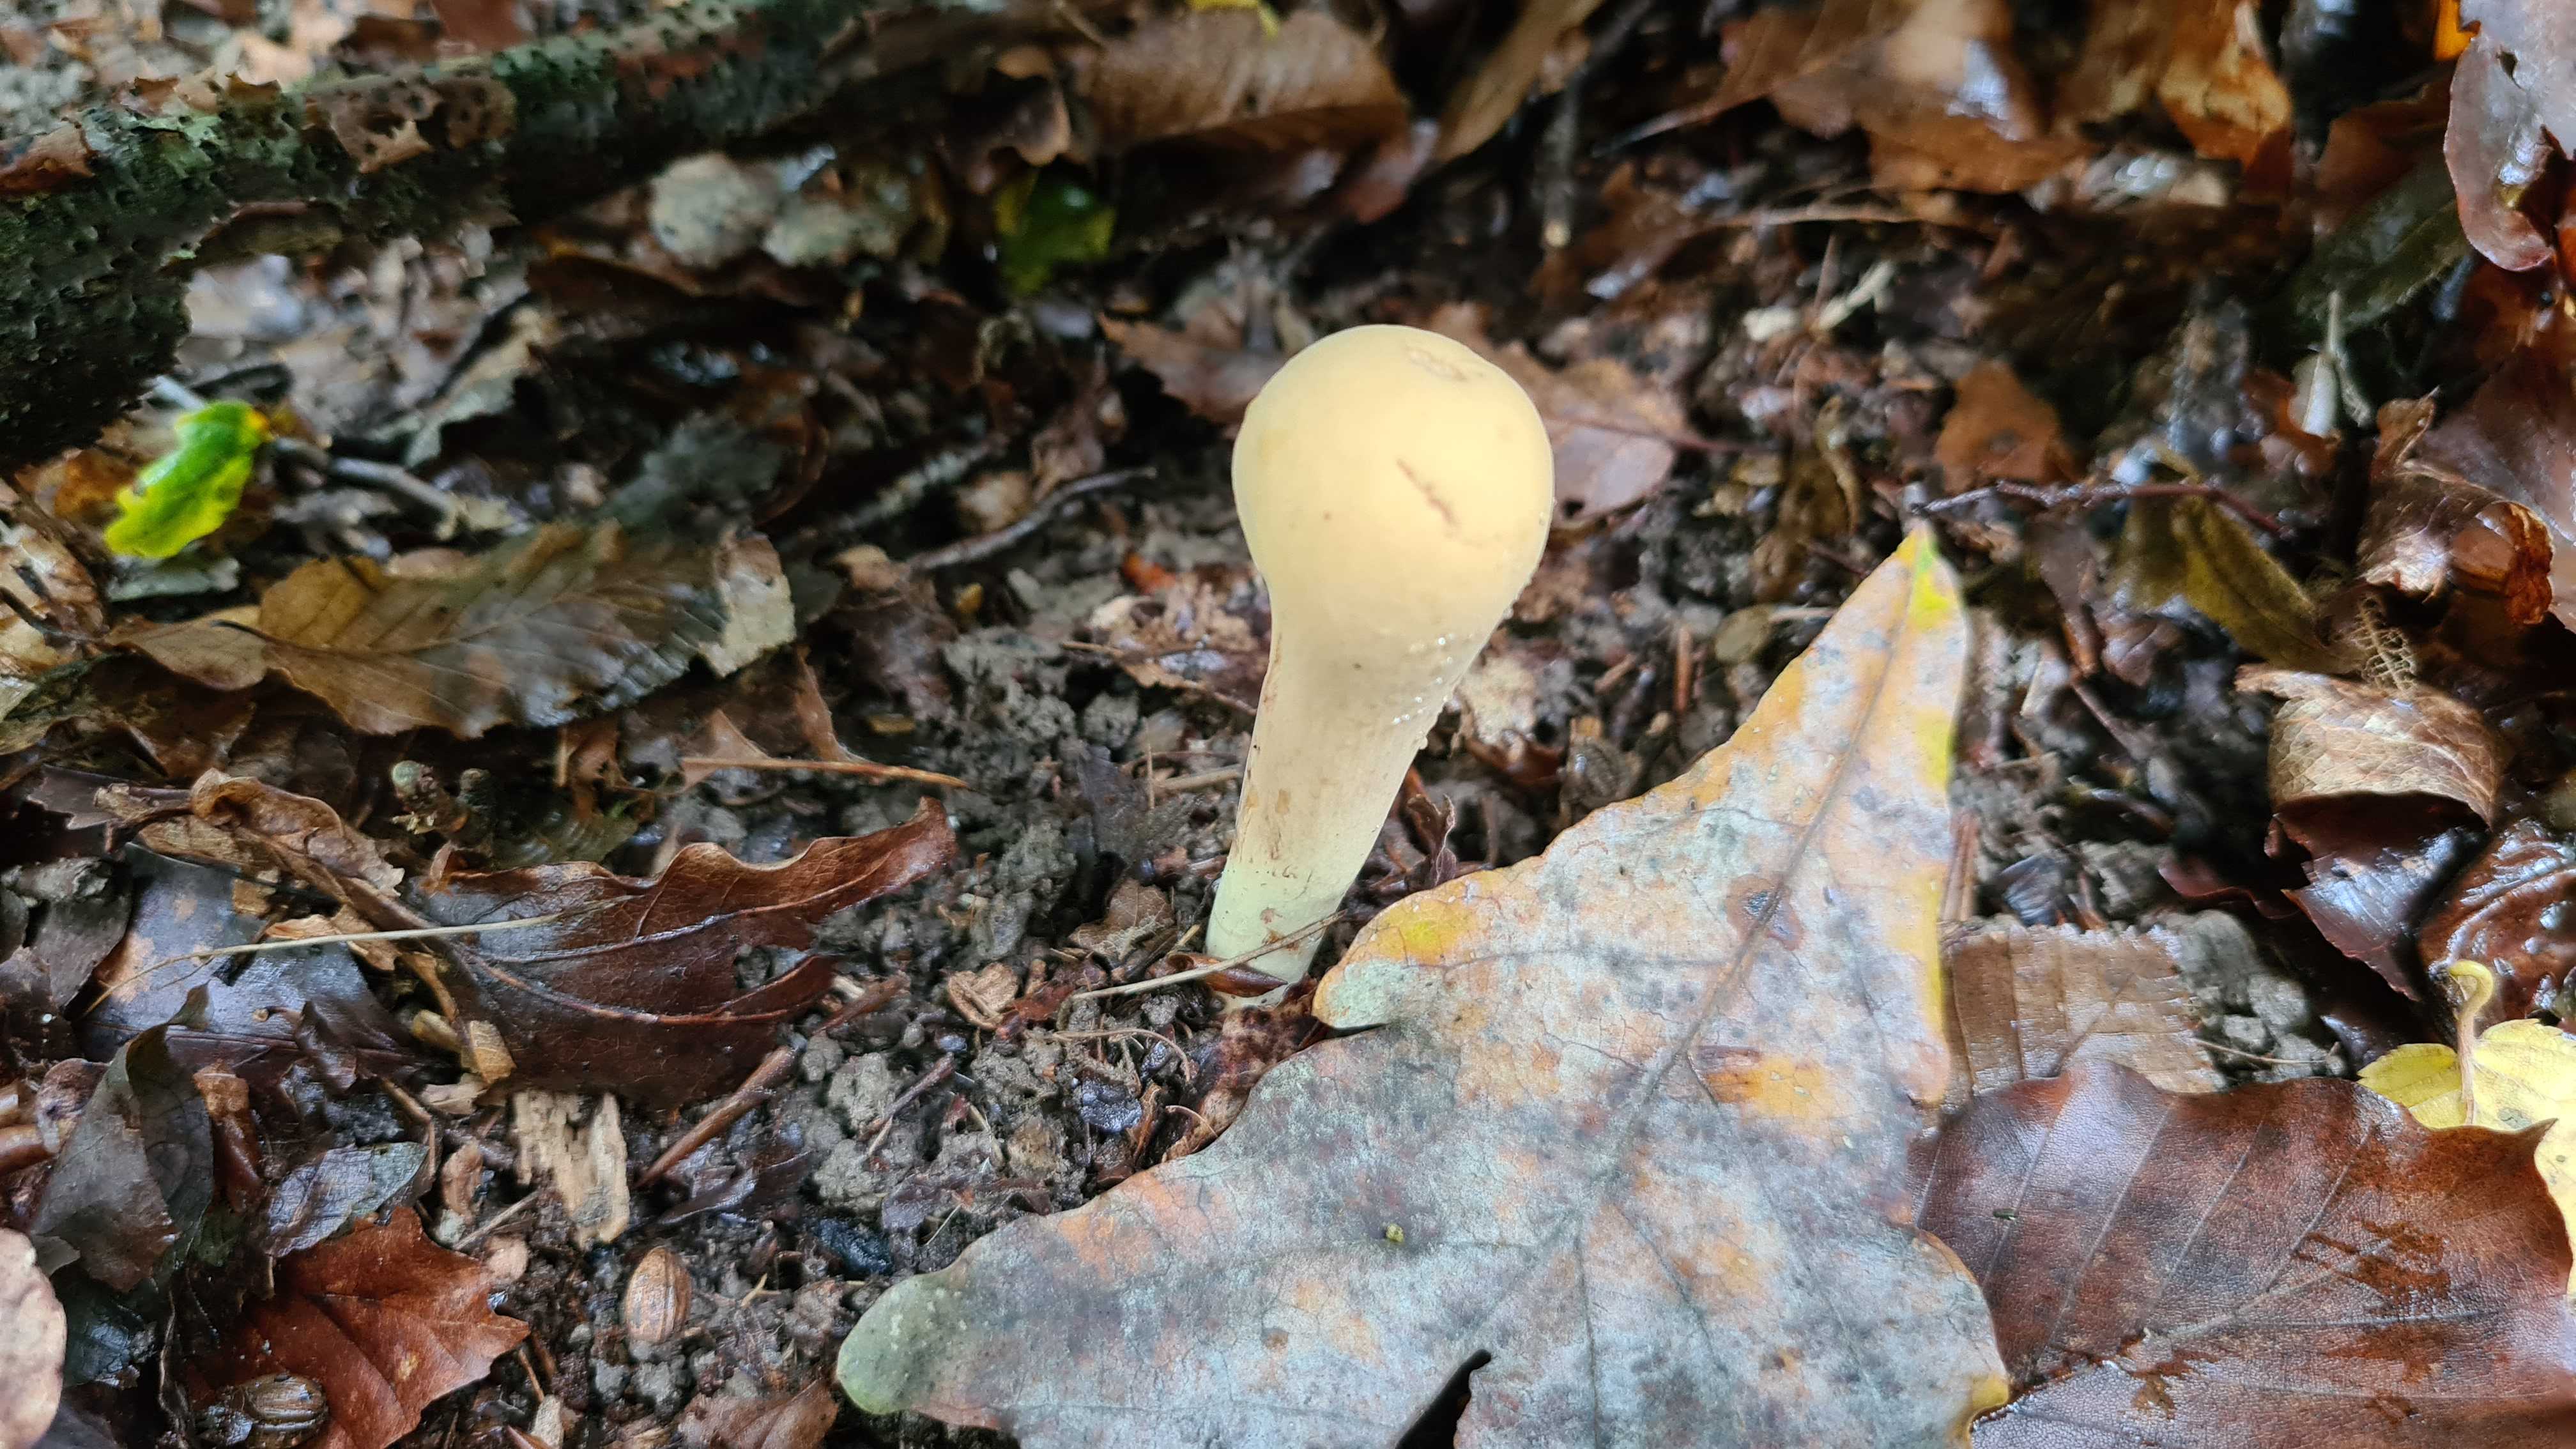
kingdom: Fungi
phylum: Basidiomycota
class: Agaricomycetes
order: Gomphales
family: Clavariadelphaceae
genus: Clavariadelphus
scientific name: Clavariadelphus pistillaris
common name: herkules-kæmpekølle
